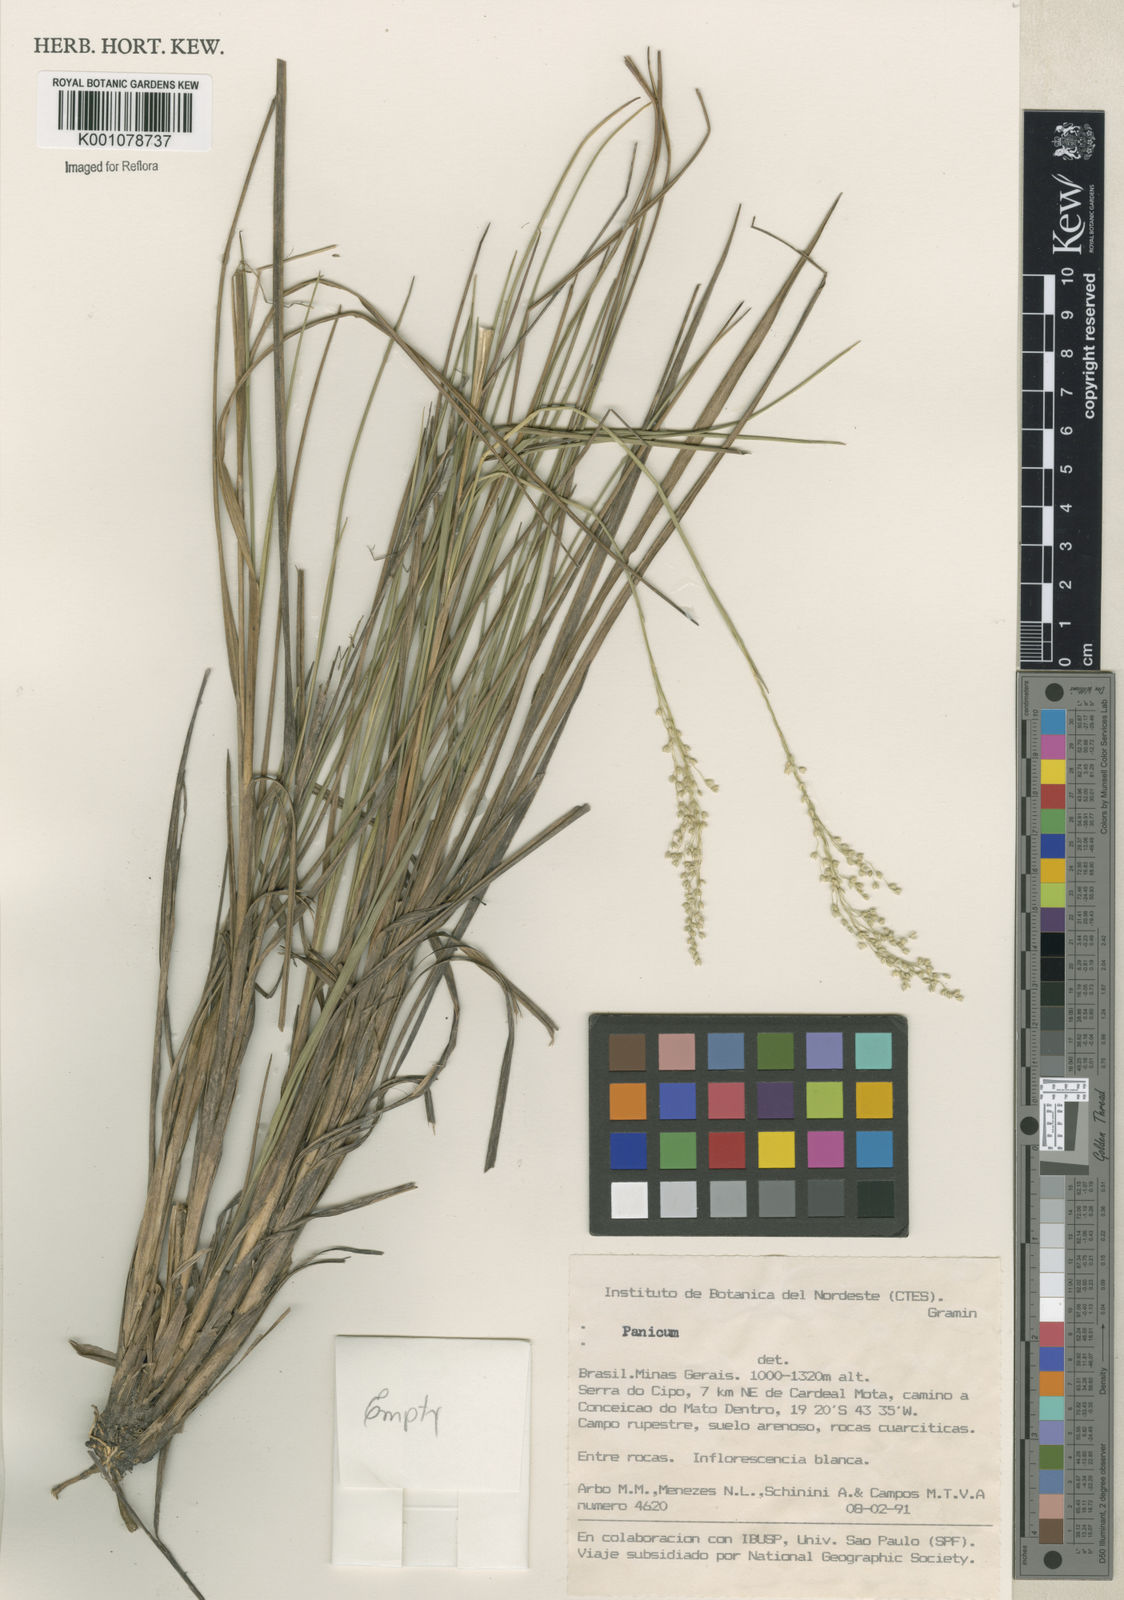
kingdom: Plantae
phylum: Tracheophyta
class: Liliopsida
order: Poales
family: Poaceae
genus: Panicum
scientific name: Panicum
